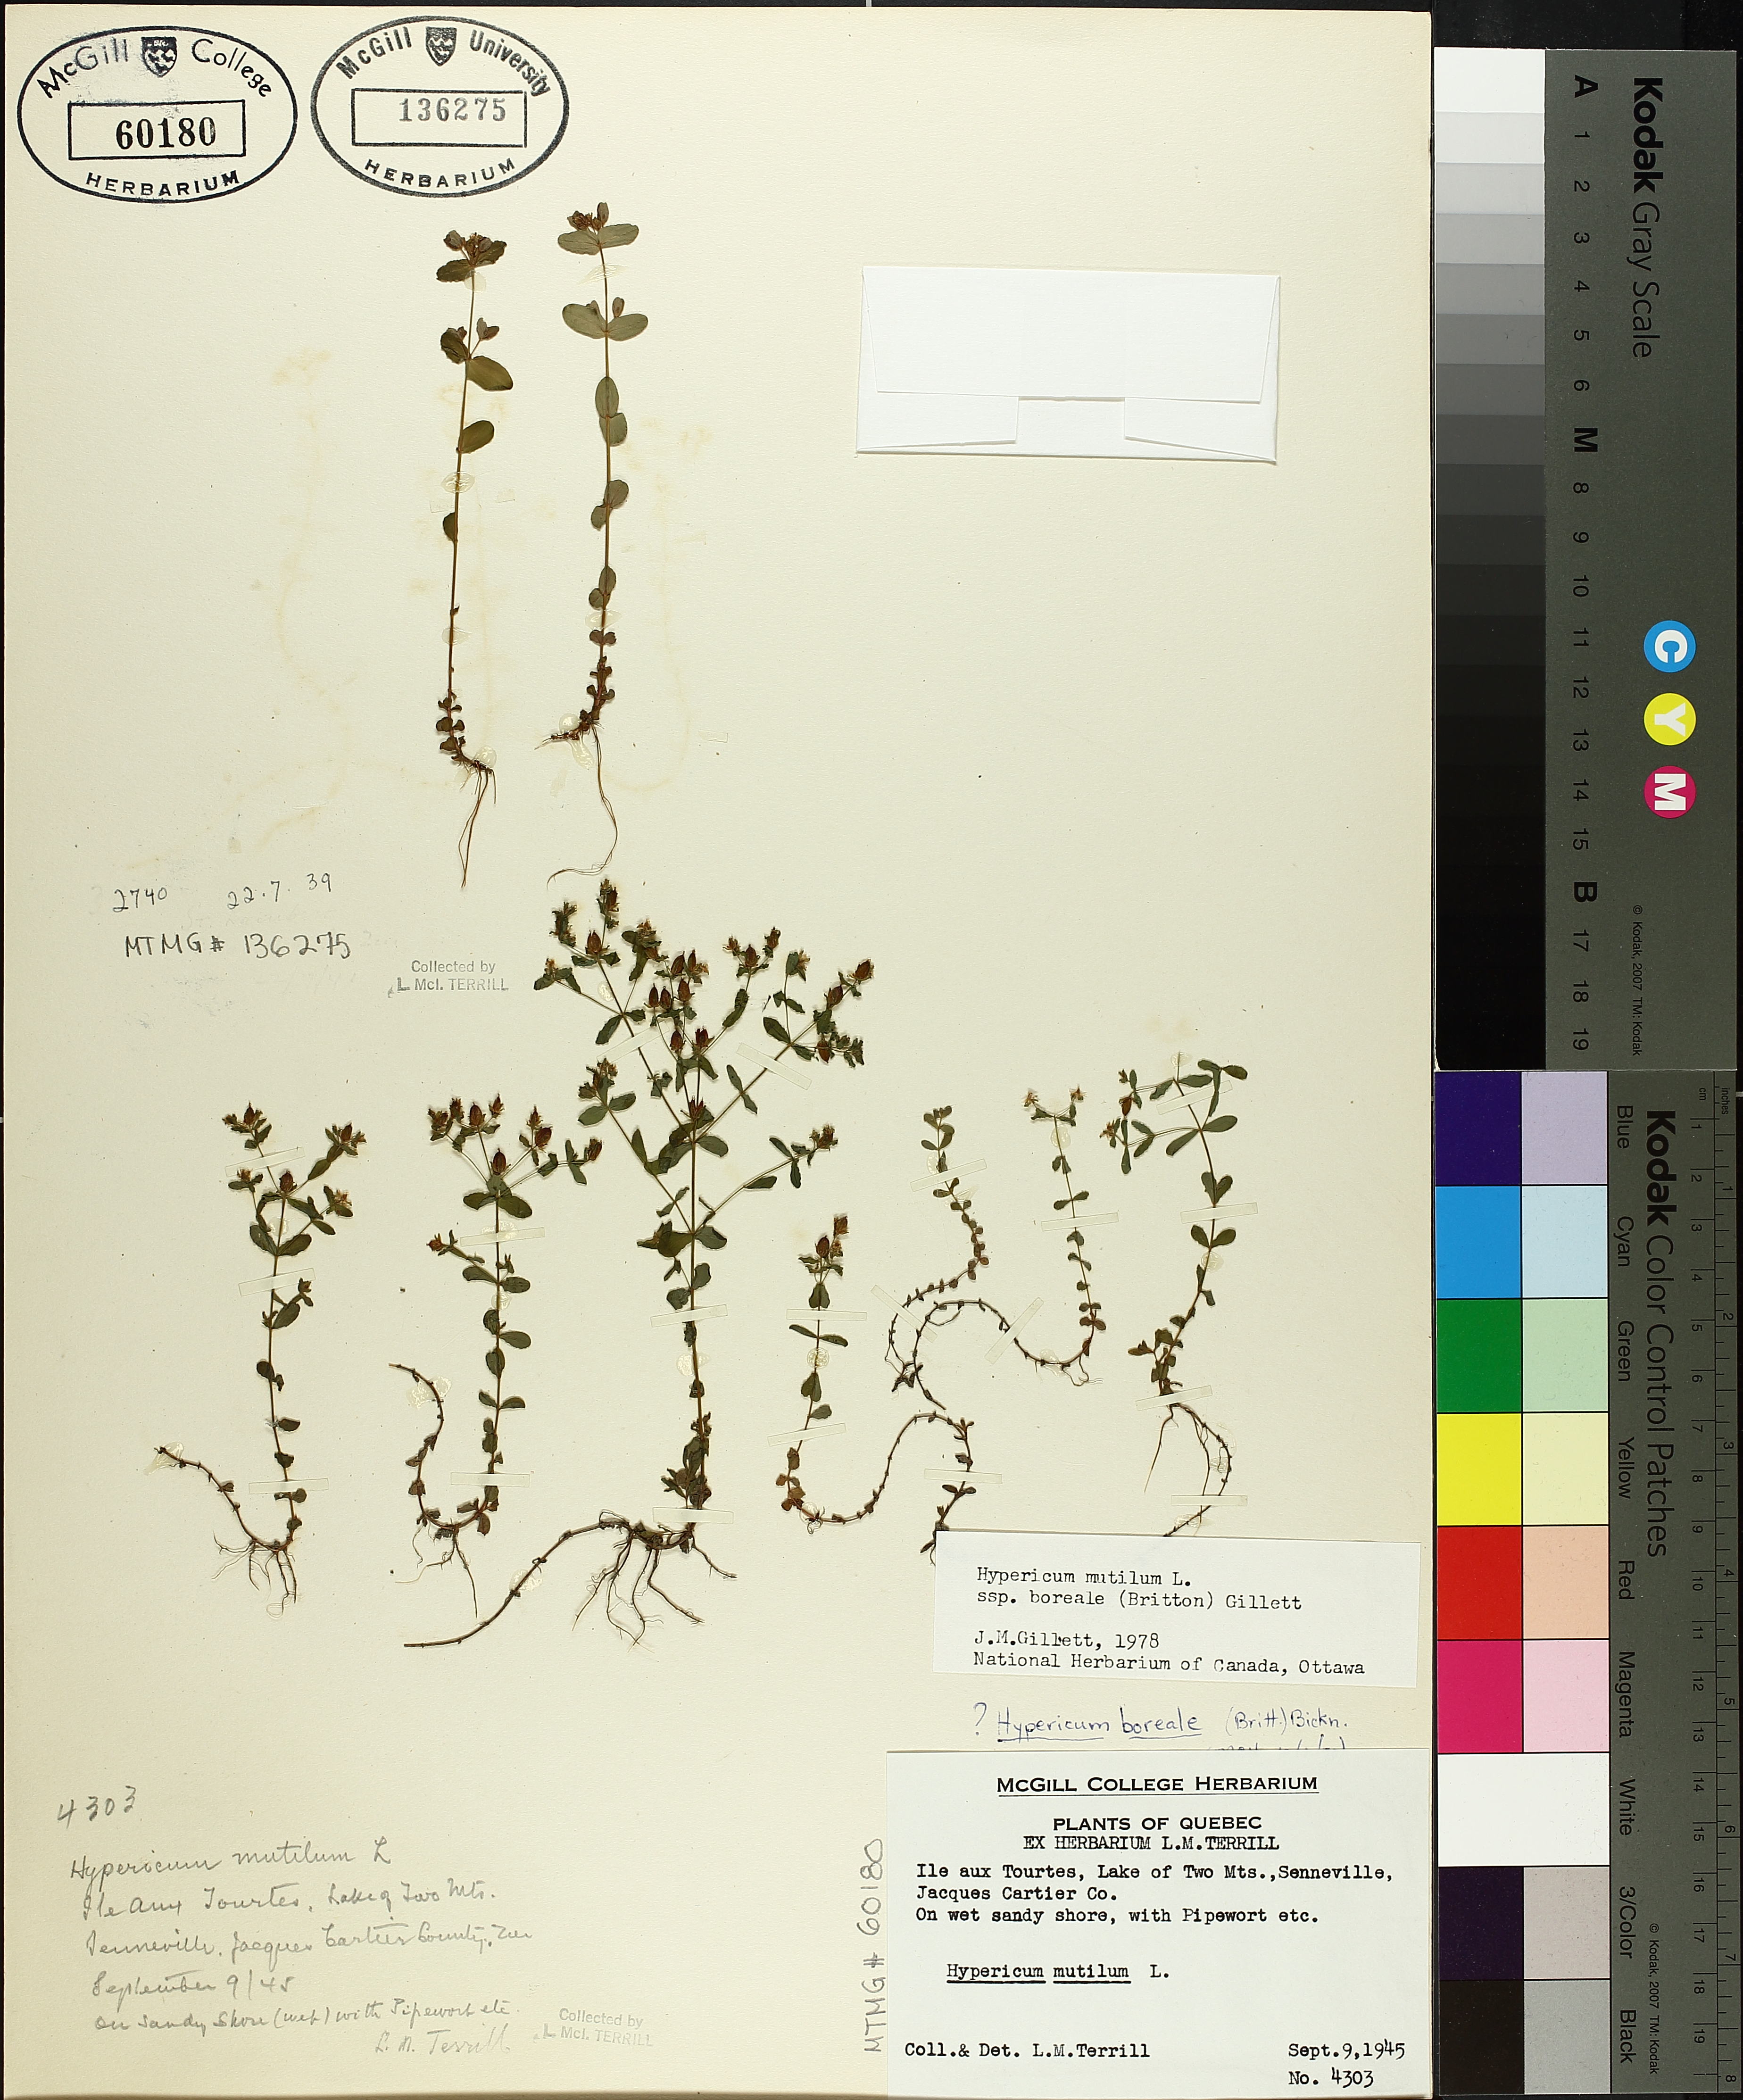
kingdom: Plantae
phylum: Tracheophyta
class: Magnoliopsida
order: Malpighiales
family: Hypericaceae
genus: Hypericum
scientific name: Hypericum boreale
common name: Northern bog st. john's-wort
